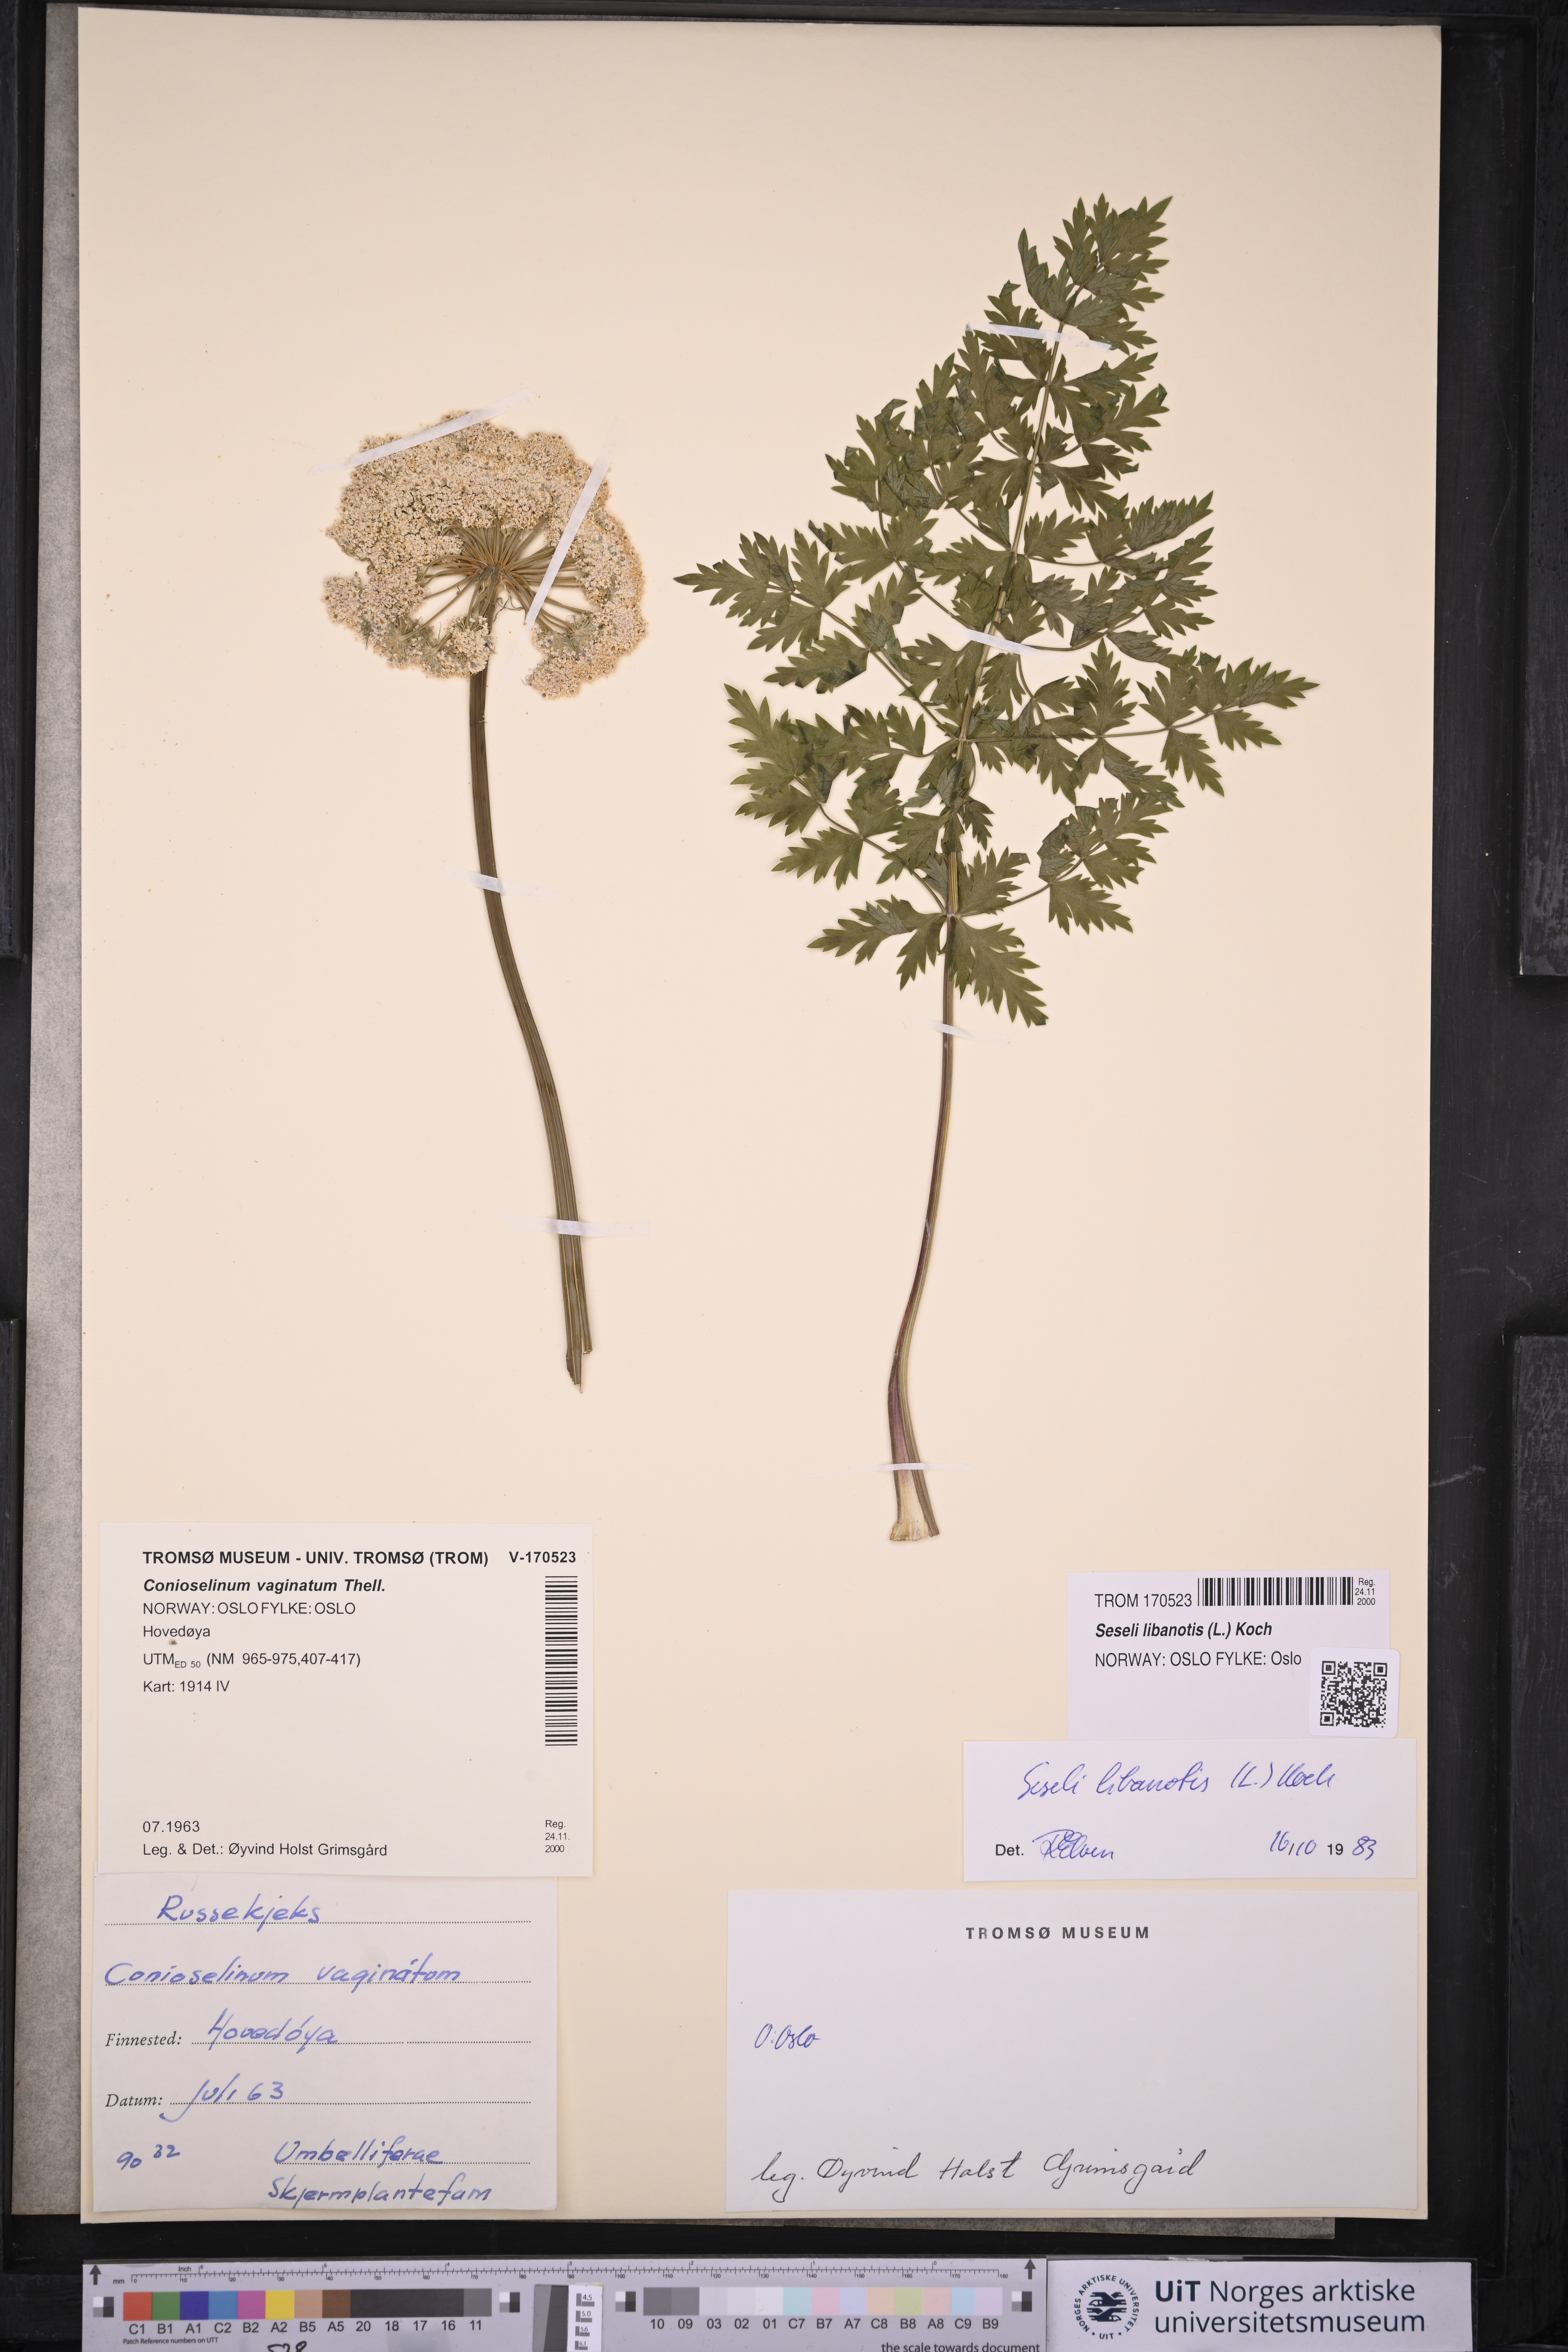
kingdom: Plantae
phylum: Tracheophyta
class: Magnoliopsida
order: Apiales
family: Apiaceae
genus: Seseli
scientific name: Seseli libanotis
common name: Mooncarrot
